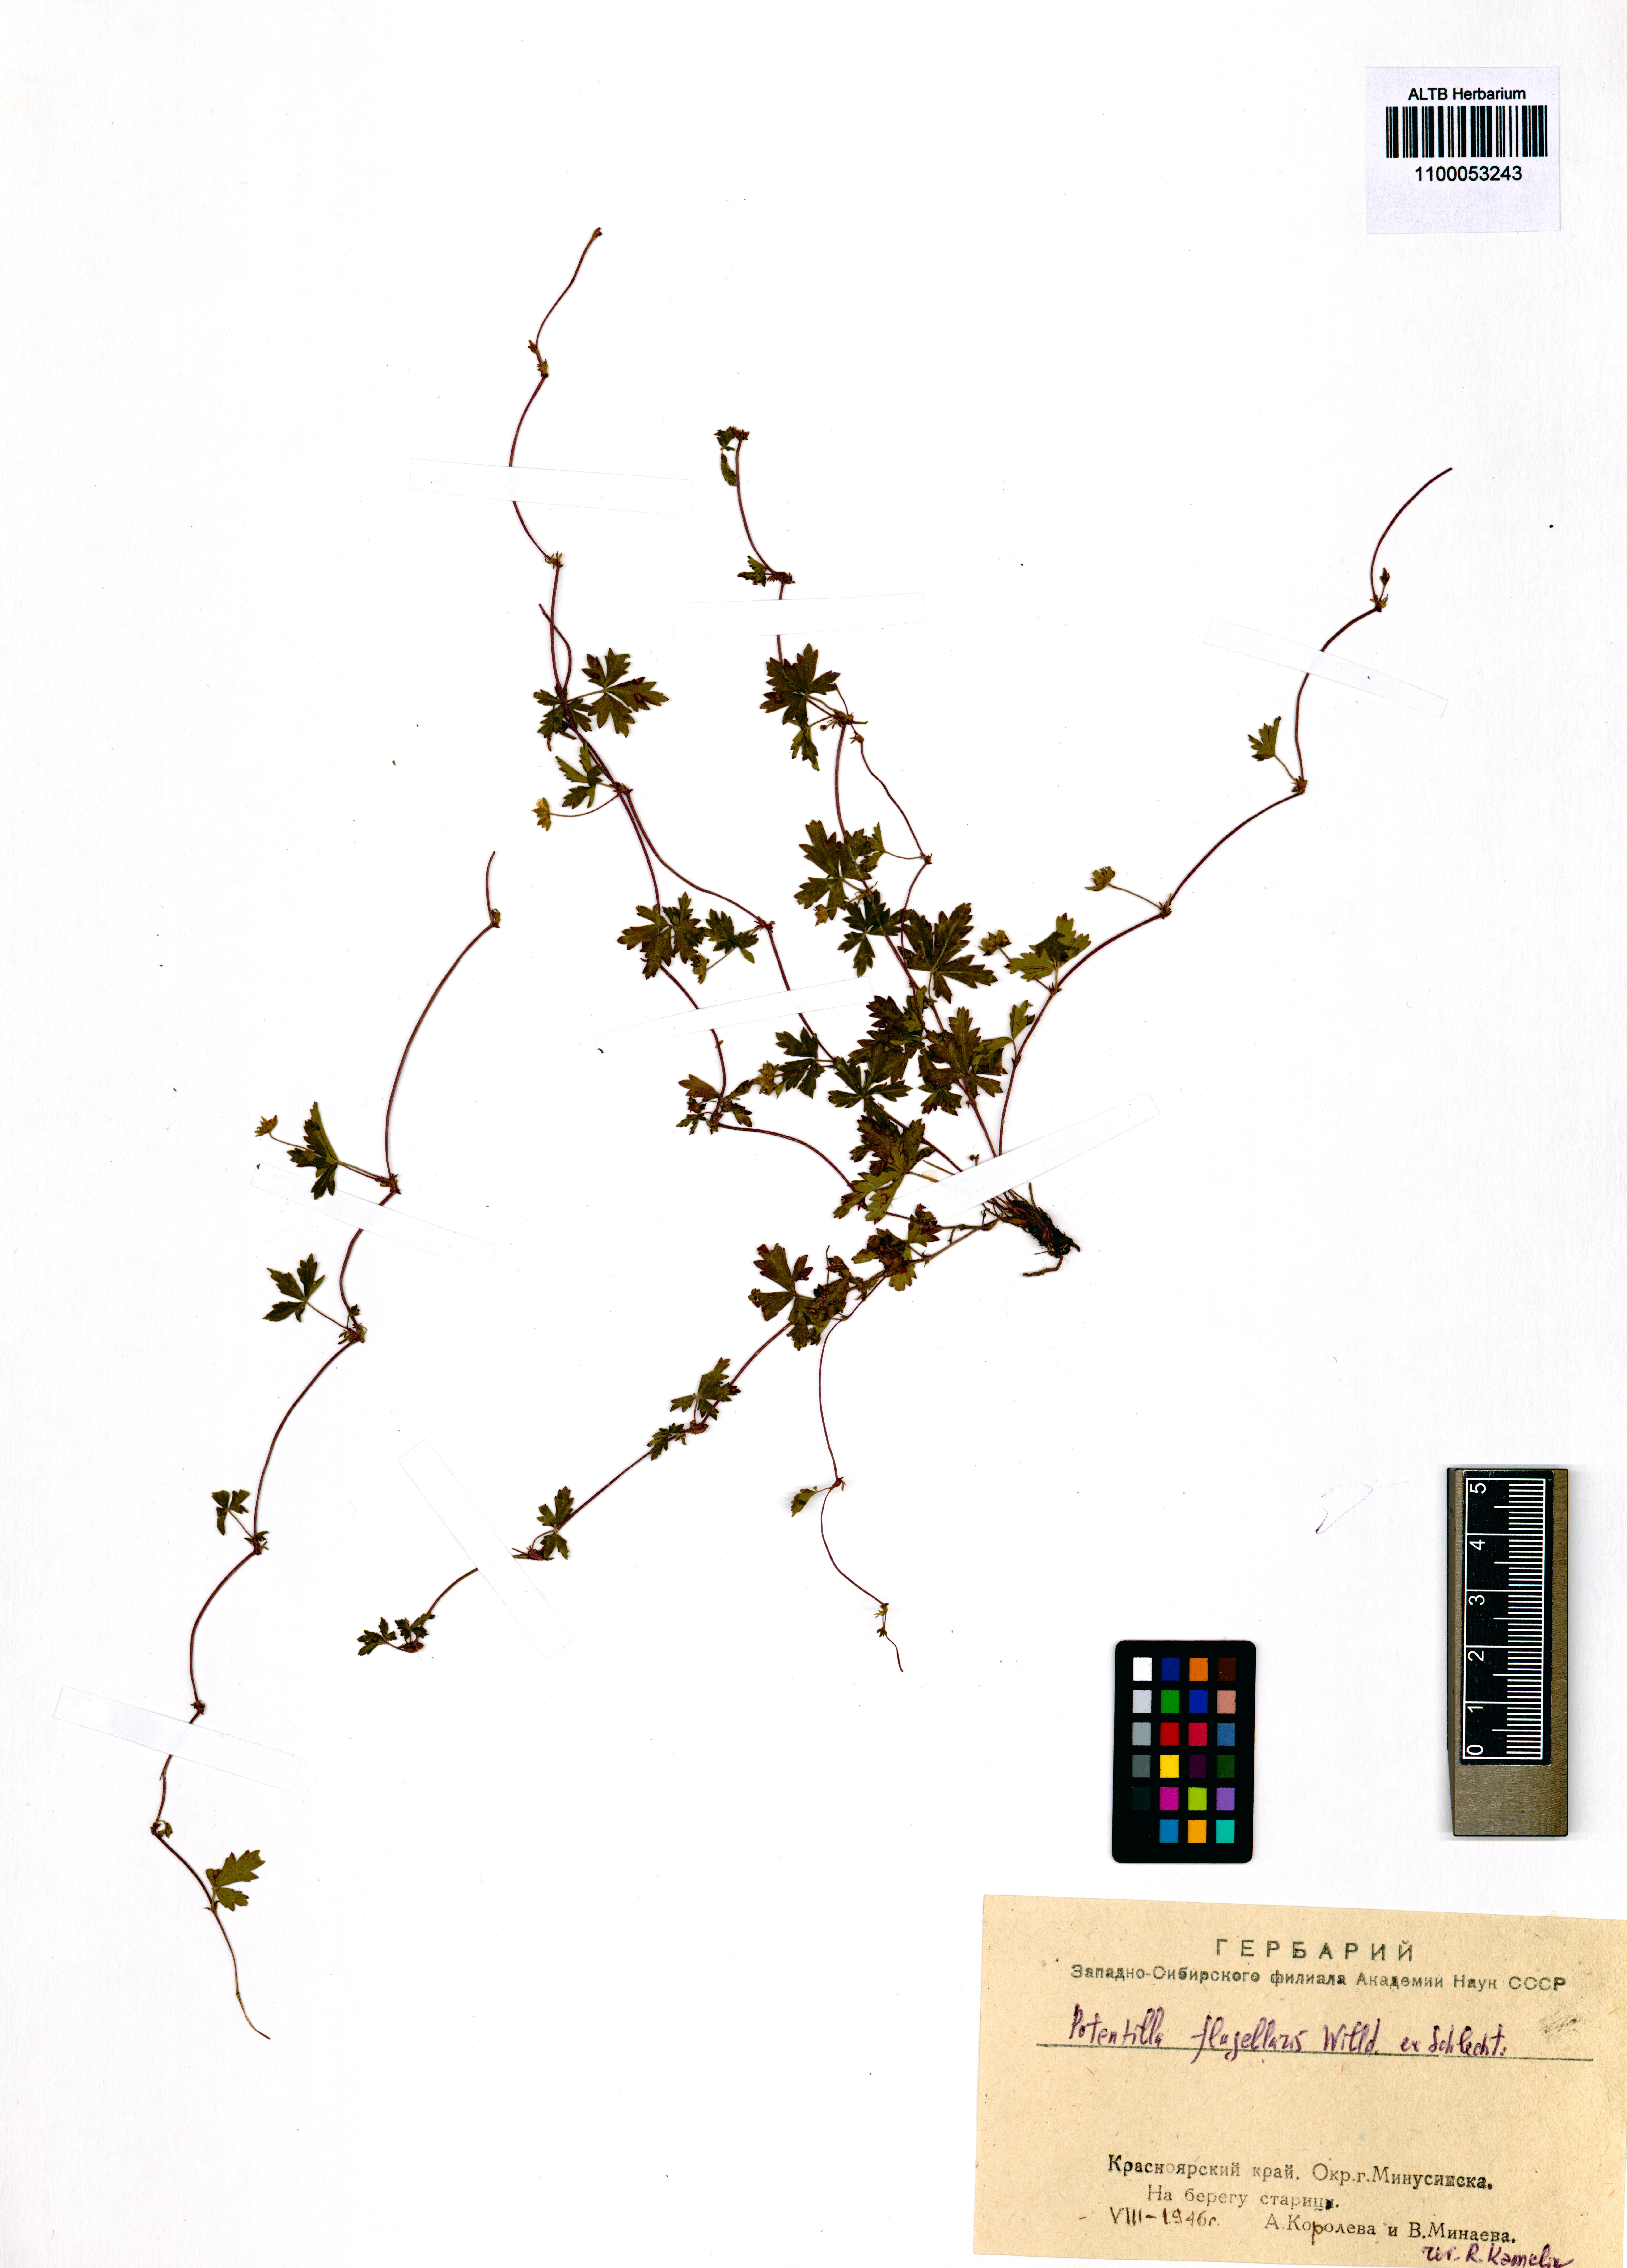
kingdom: Plantae
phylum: Tracheophyta
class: Magnoliopsida
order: Rosales
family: Rosaceae
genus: Potentilla
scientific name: Potentilla flagellaris
